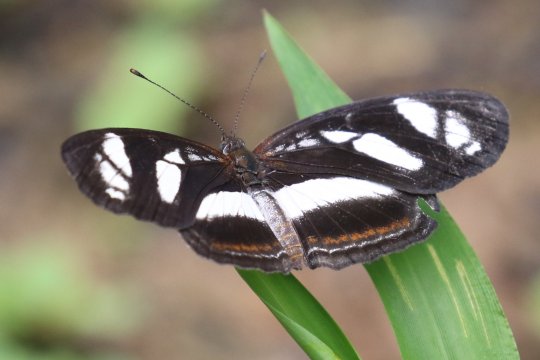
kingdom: Animalia
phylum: Arthropoda
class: Insecta
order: Lepidoptera
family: Nymphalidae
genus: Eresia
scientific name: Eresia nauplius
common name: Nauplius crescent
